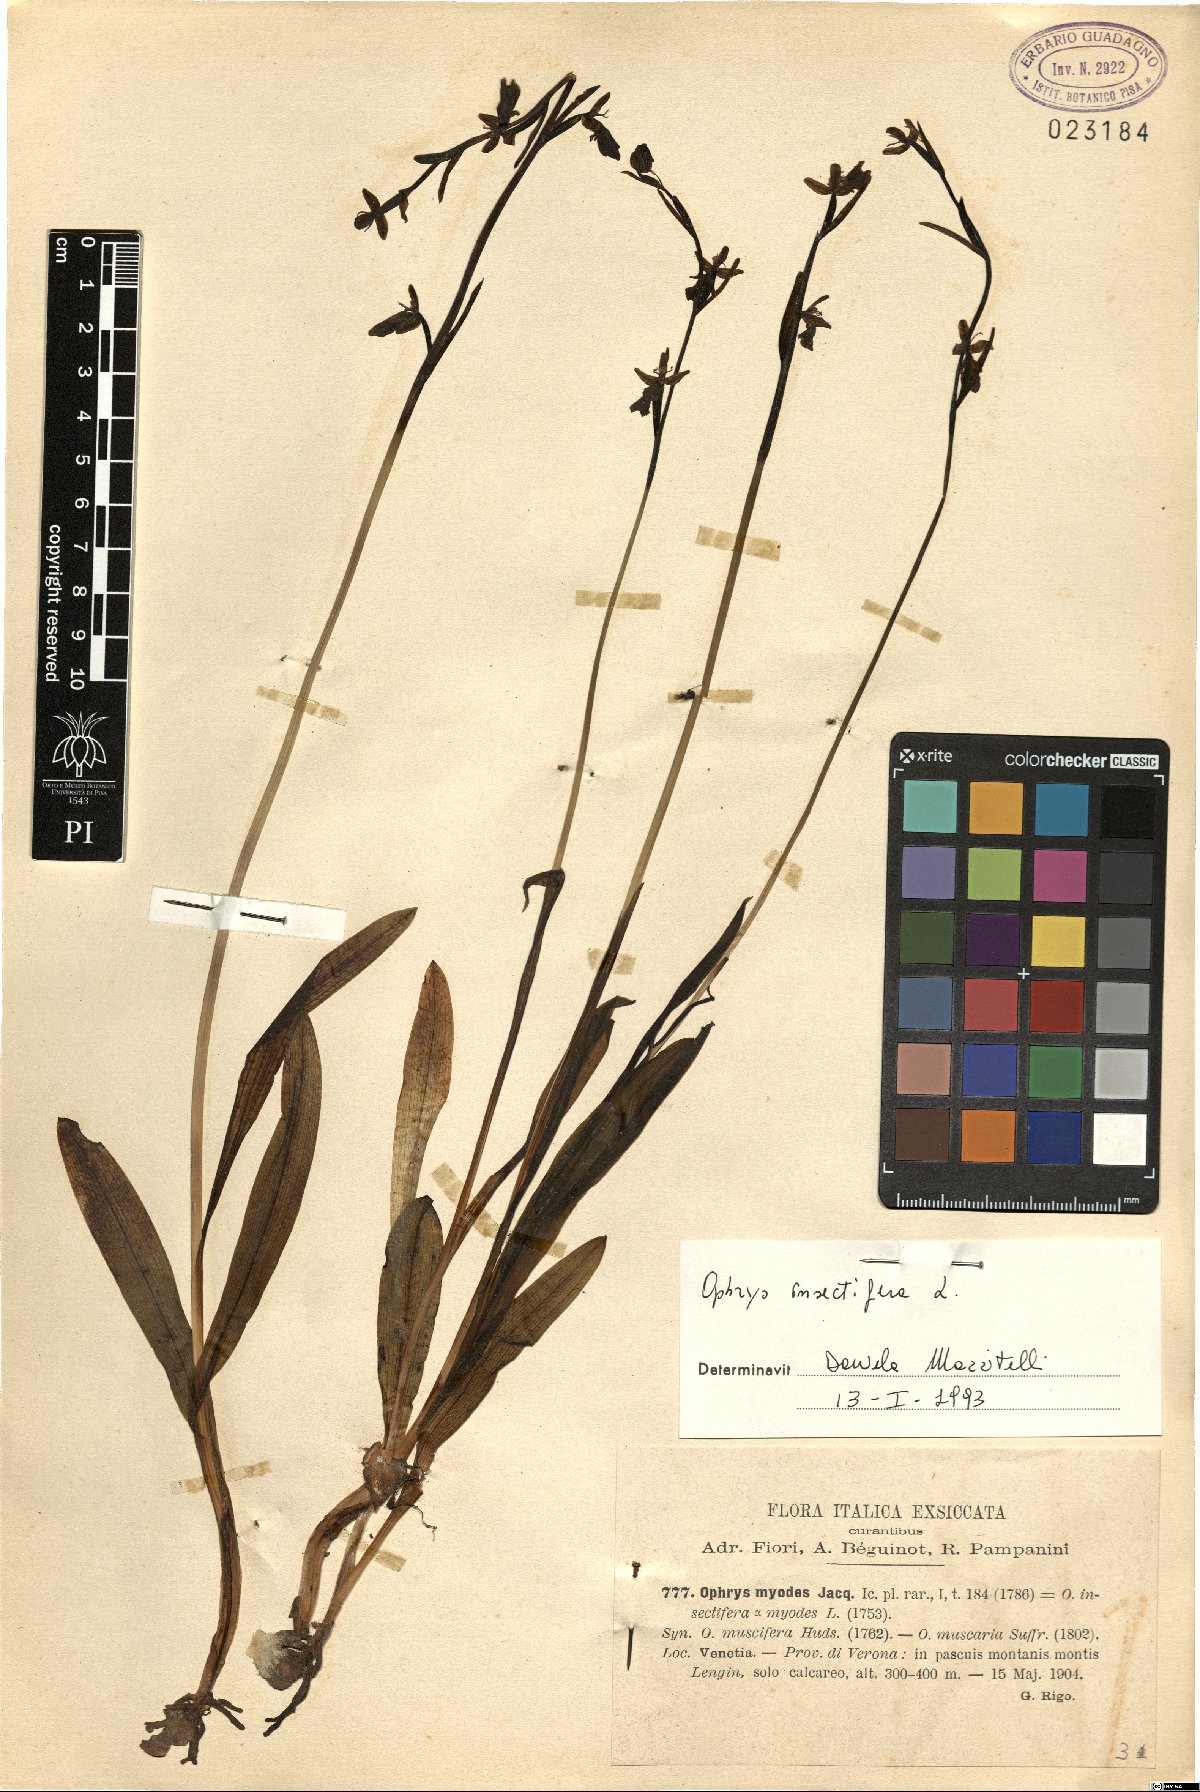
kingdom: Plantae
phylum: Tracheophyta
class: Liliopsida
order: Asparagales
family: Orchidaceae
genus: Ophrys
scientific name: Ophrys insectifera
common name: Fly orchid
